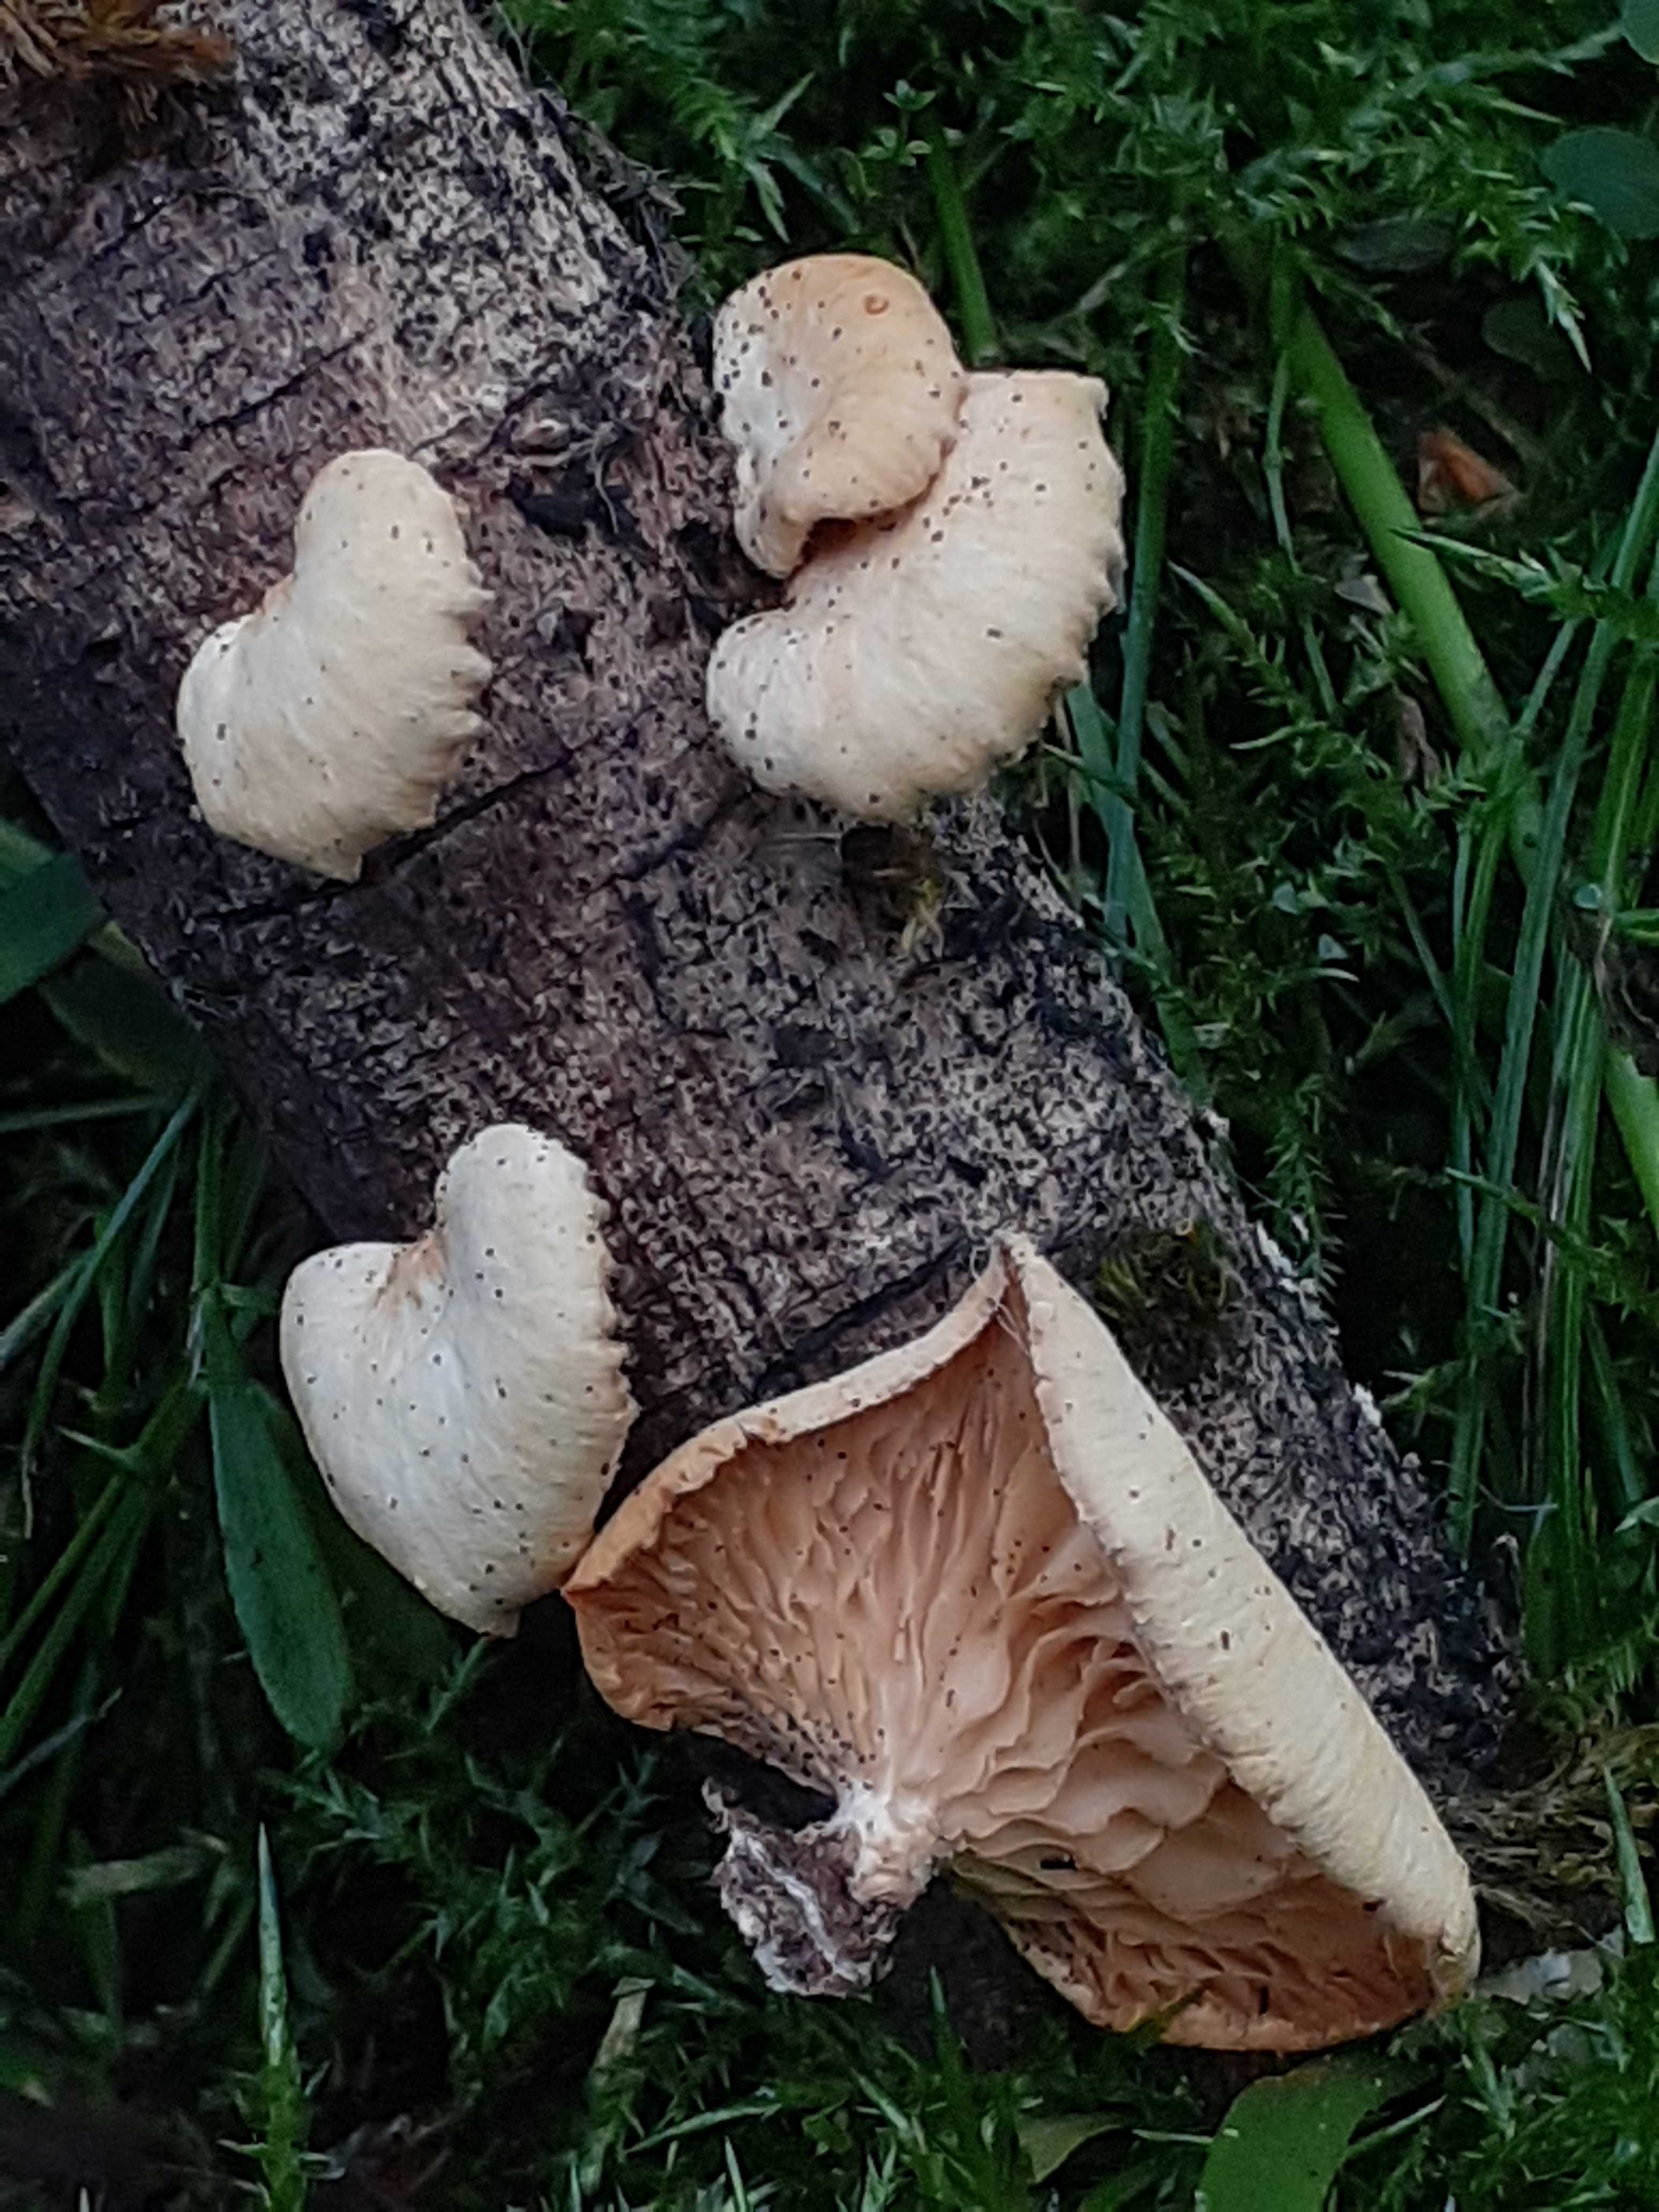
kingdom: Fungi
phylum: Basidiomycota
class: Agaricomycetes
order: Polyporales
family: Polyporaceae
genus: Neofavolus
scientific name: Neofavolus suavissimus
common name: anishat
